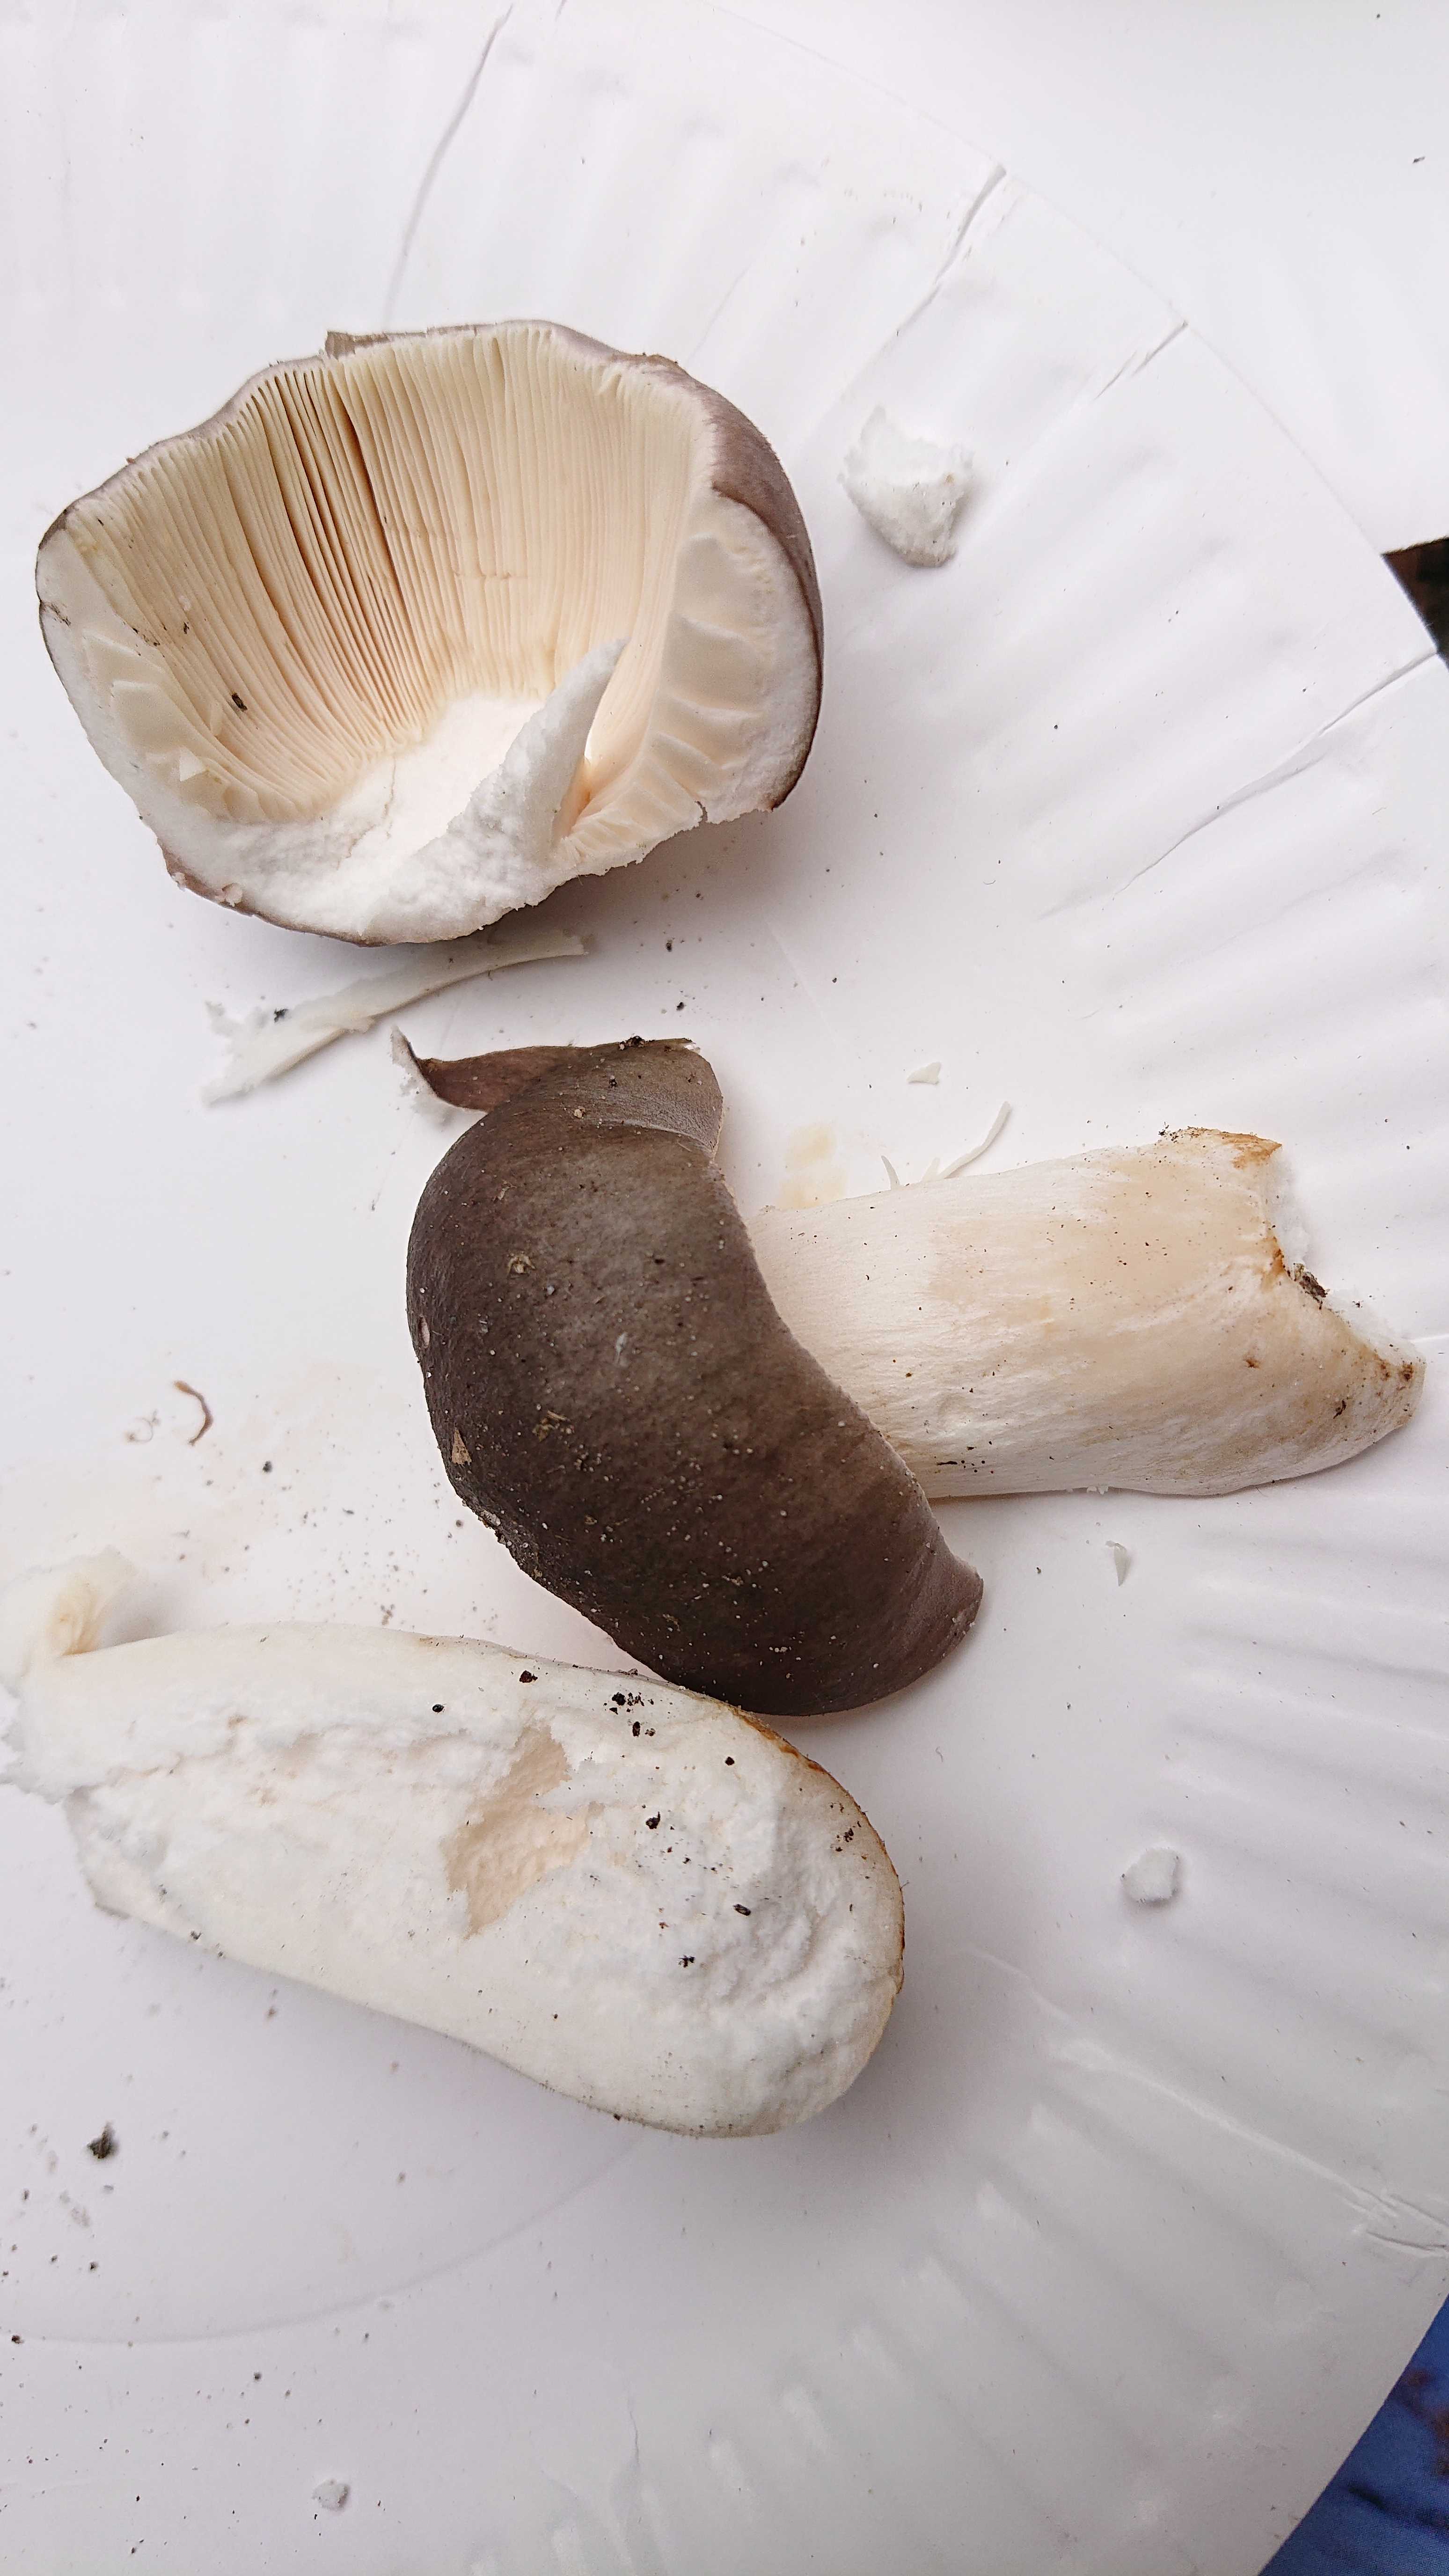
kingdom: Fungi
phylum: Basidiomycota
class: Agaricomycetes
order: Russulales
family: Russulaceae
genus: Russula
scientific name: Russula cyanoxantha
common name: broget skørhat
